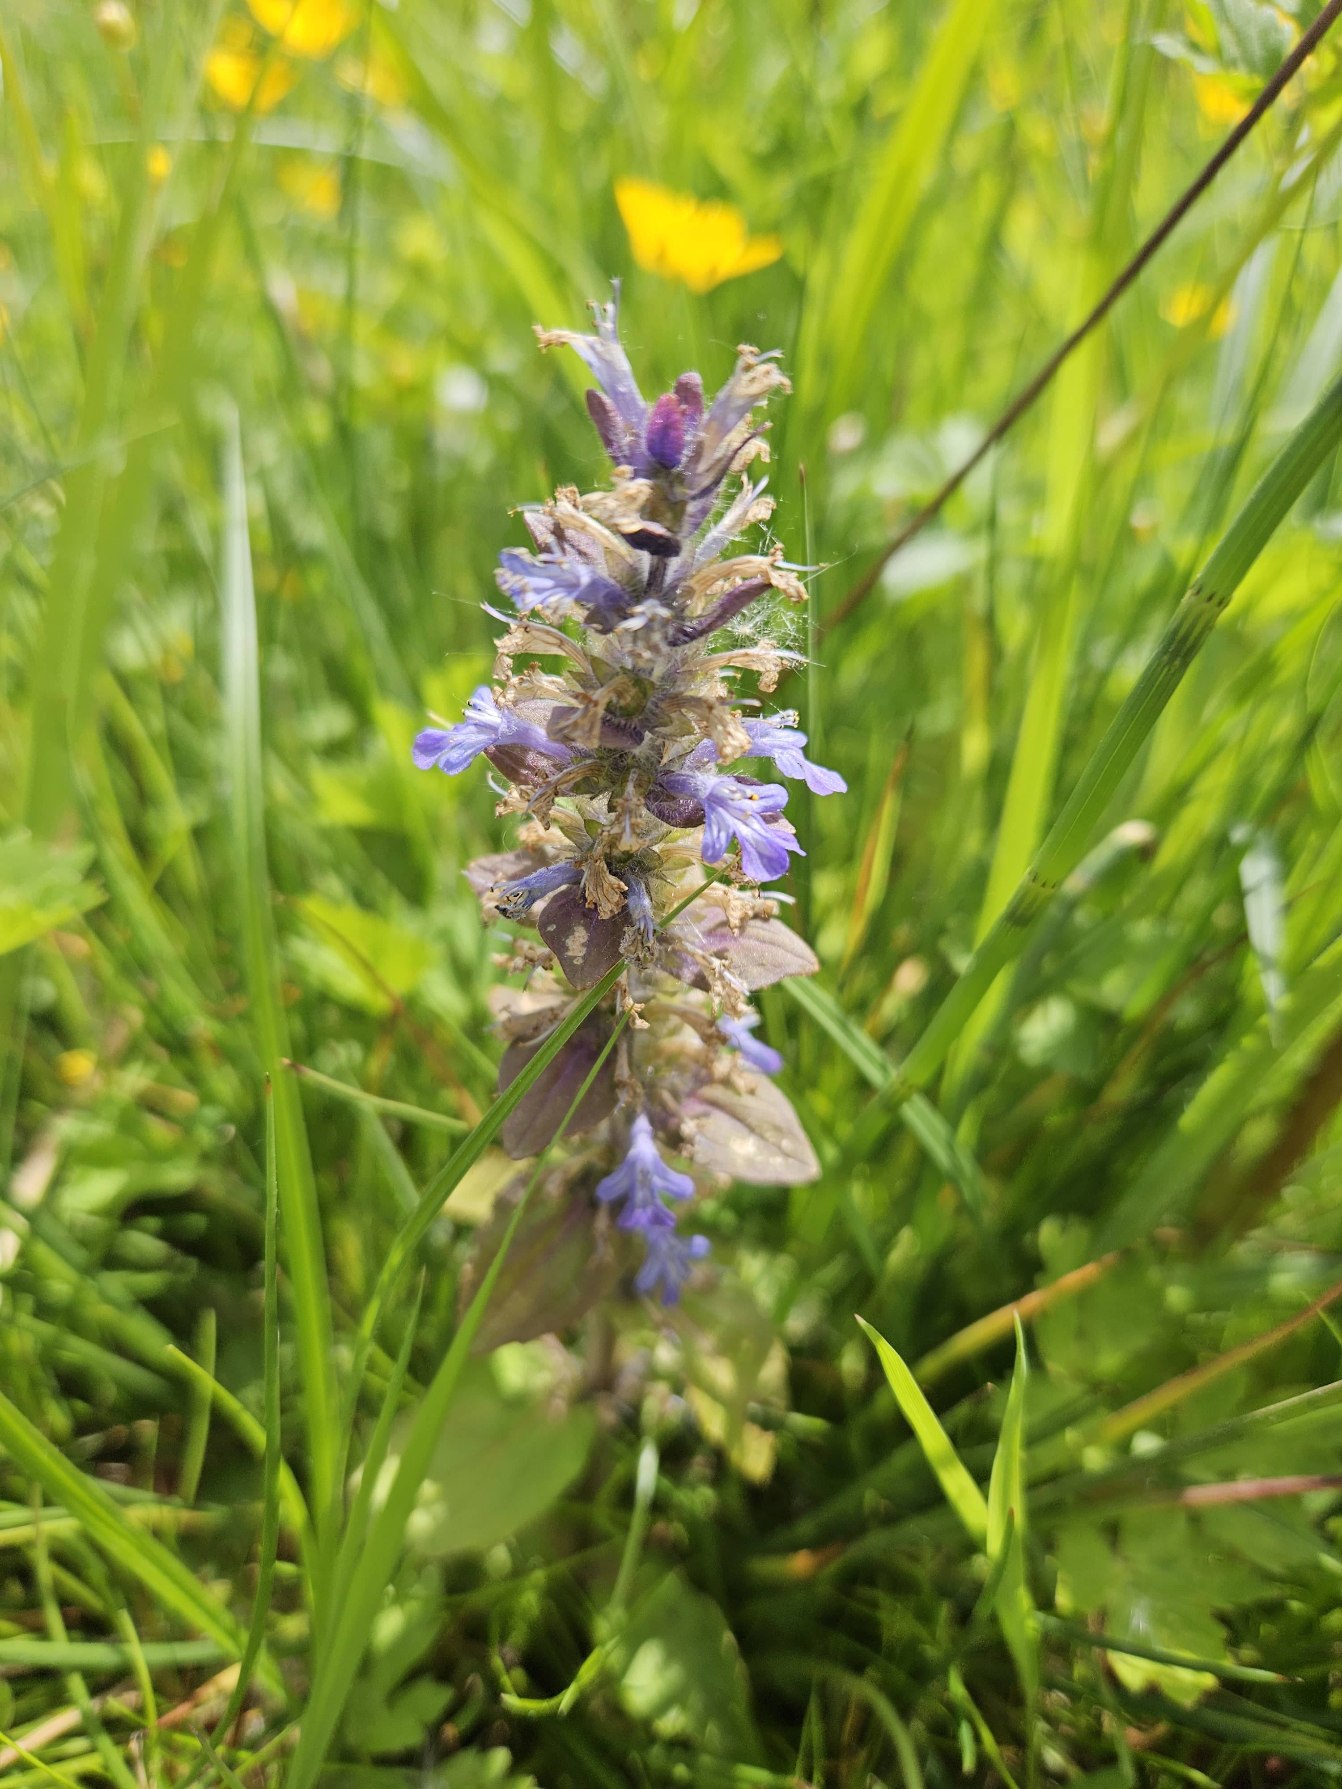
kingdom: Plantae
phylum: Tracheophyta
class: Magnoliopsida
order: Lamiales
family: Lamiaceae
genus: Ajuga
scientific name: Ajuga reptans
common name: Krybende læbeløs
